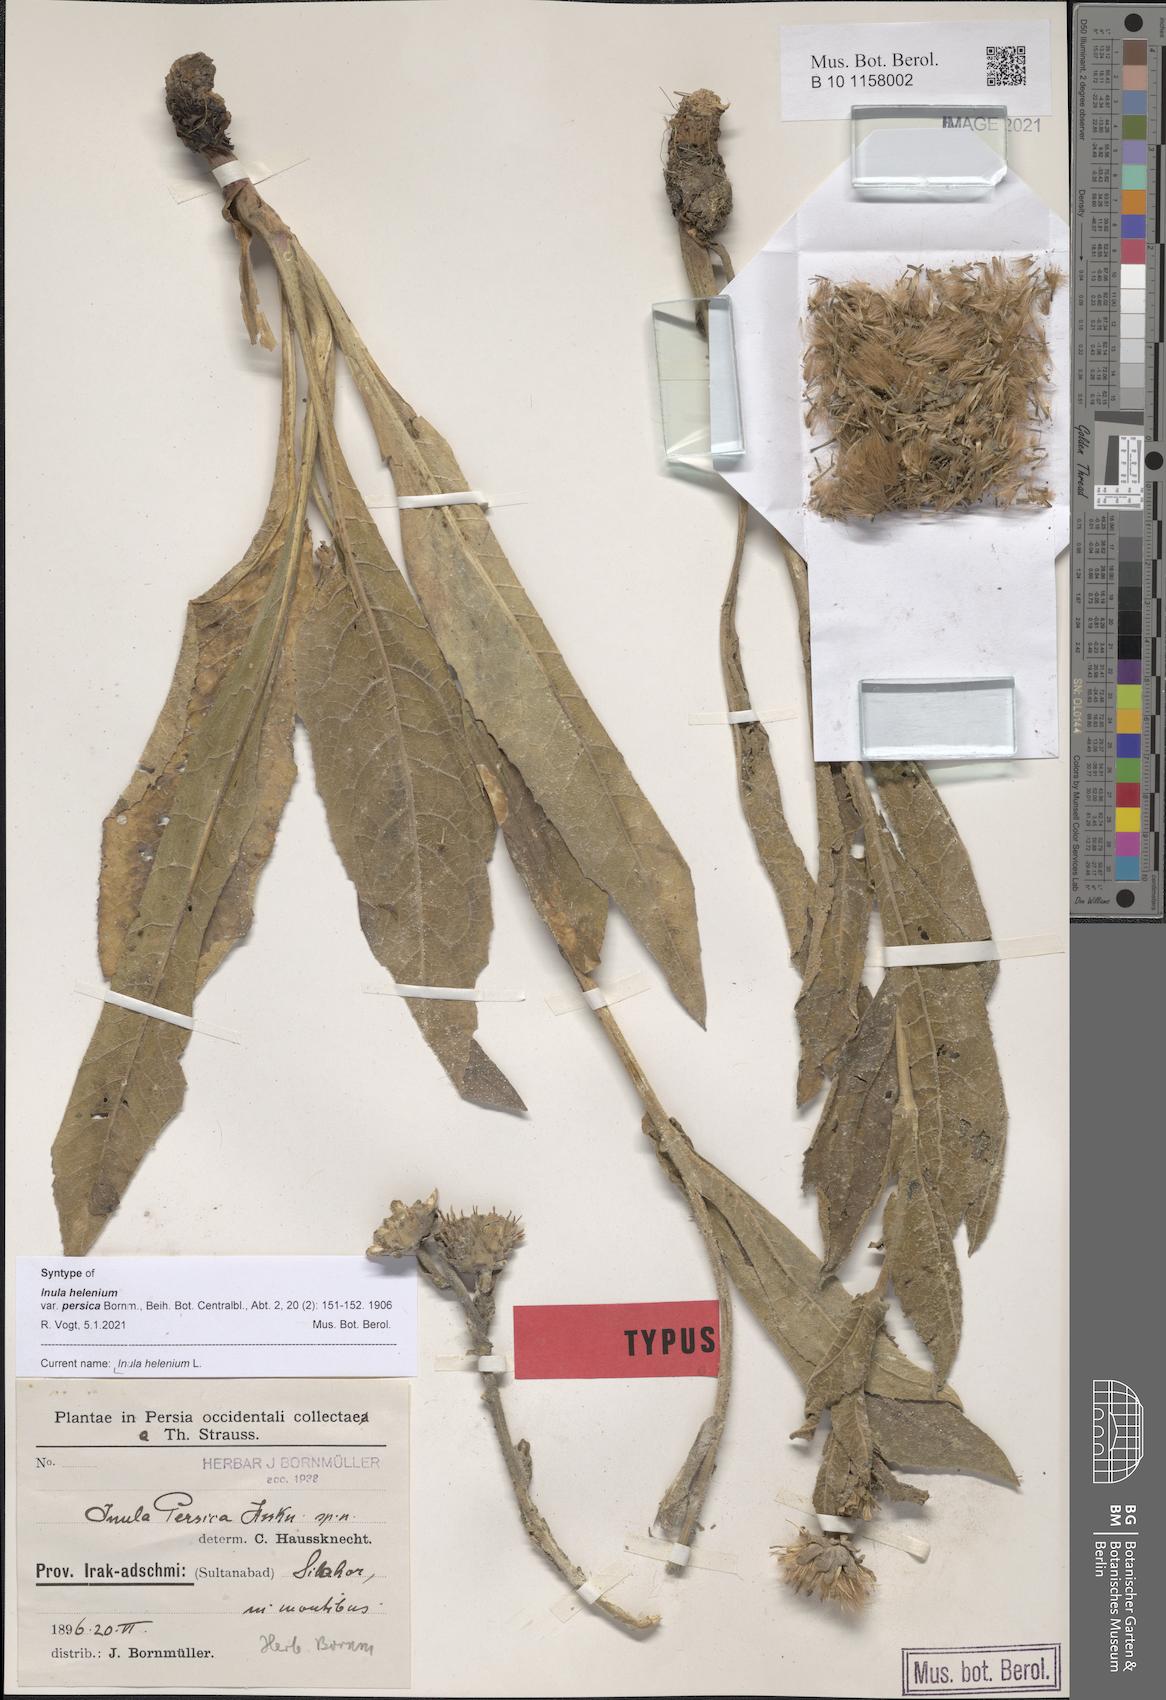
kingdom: Plantae
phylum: Tracheophyta
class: Magnoliopsida
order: Asterales
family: Asteraceae
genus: Inula
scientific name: Inula helenium
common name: Elecampane
